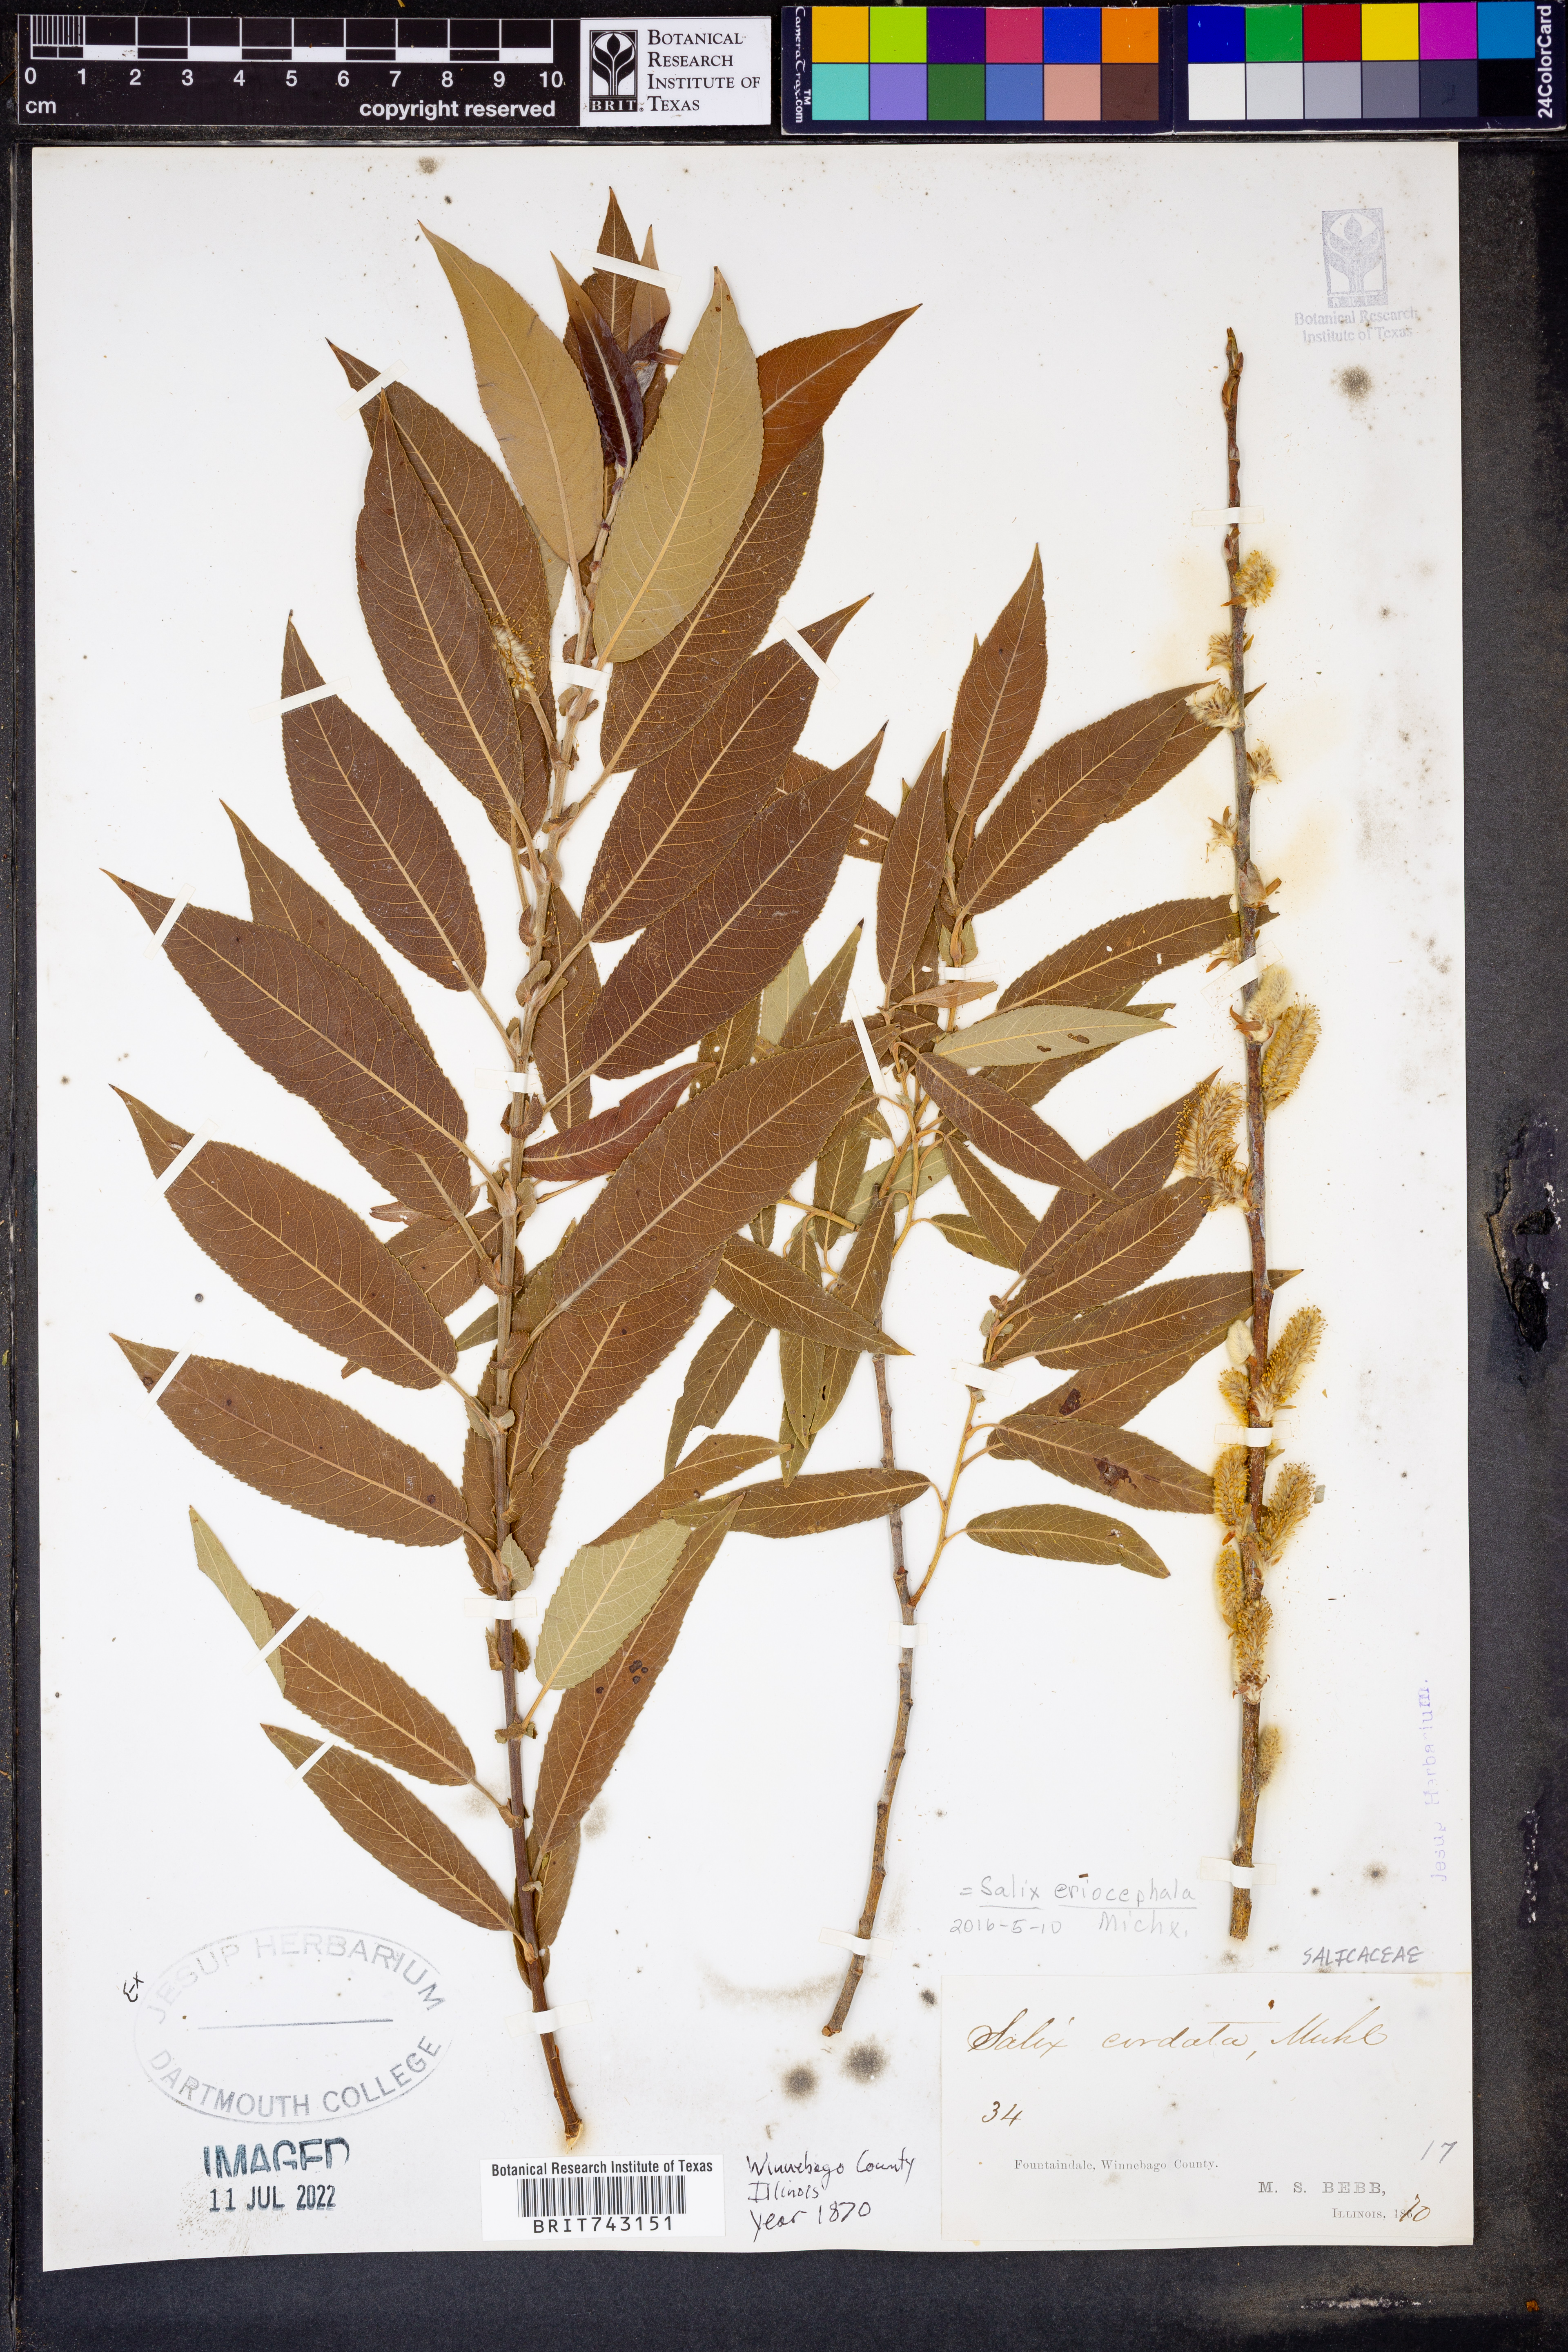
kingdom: Plantae
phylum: Tracheophyta
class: Magnoliopsida
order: Malpighiales
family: Salicaceae
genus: Salix
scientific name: Salix eriocephala
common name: Heart-leaved willow
